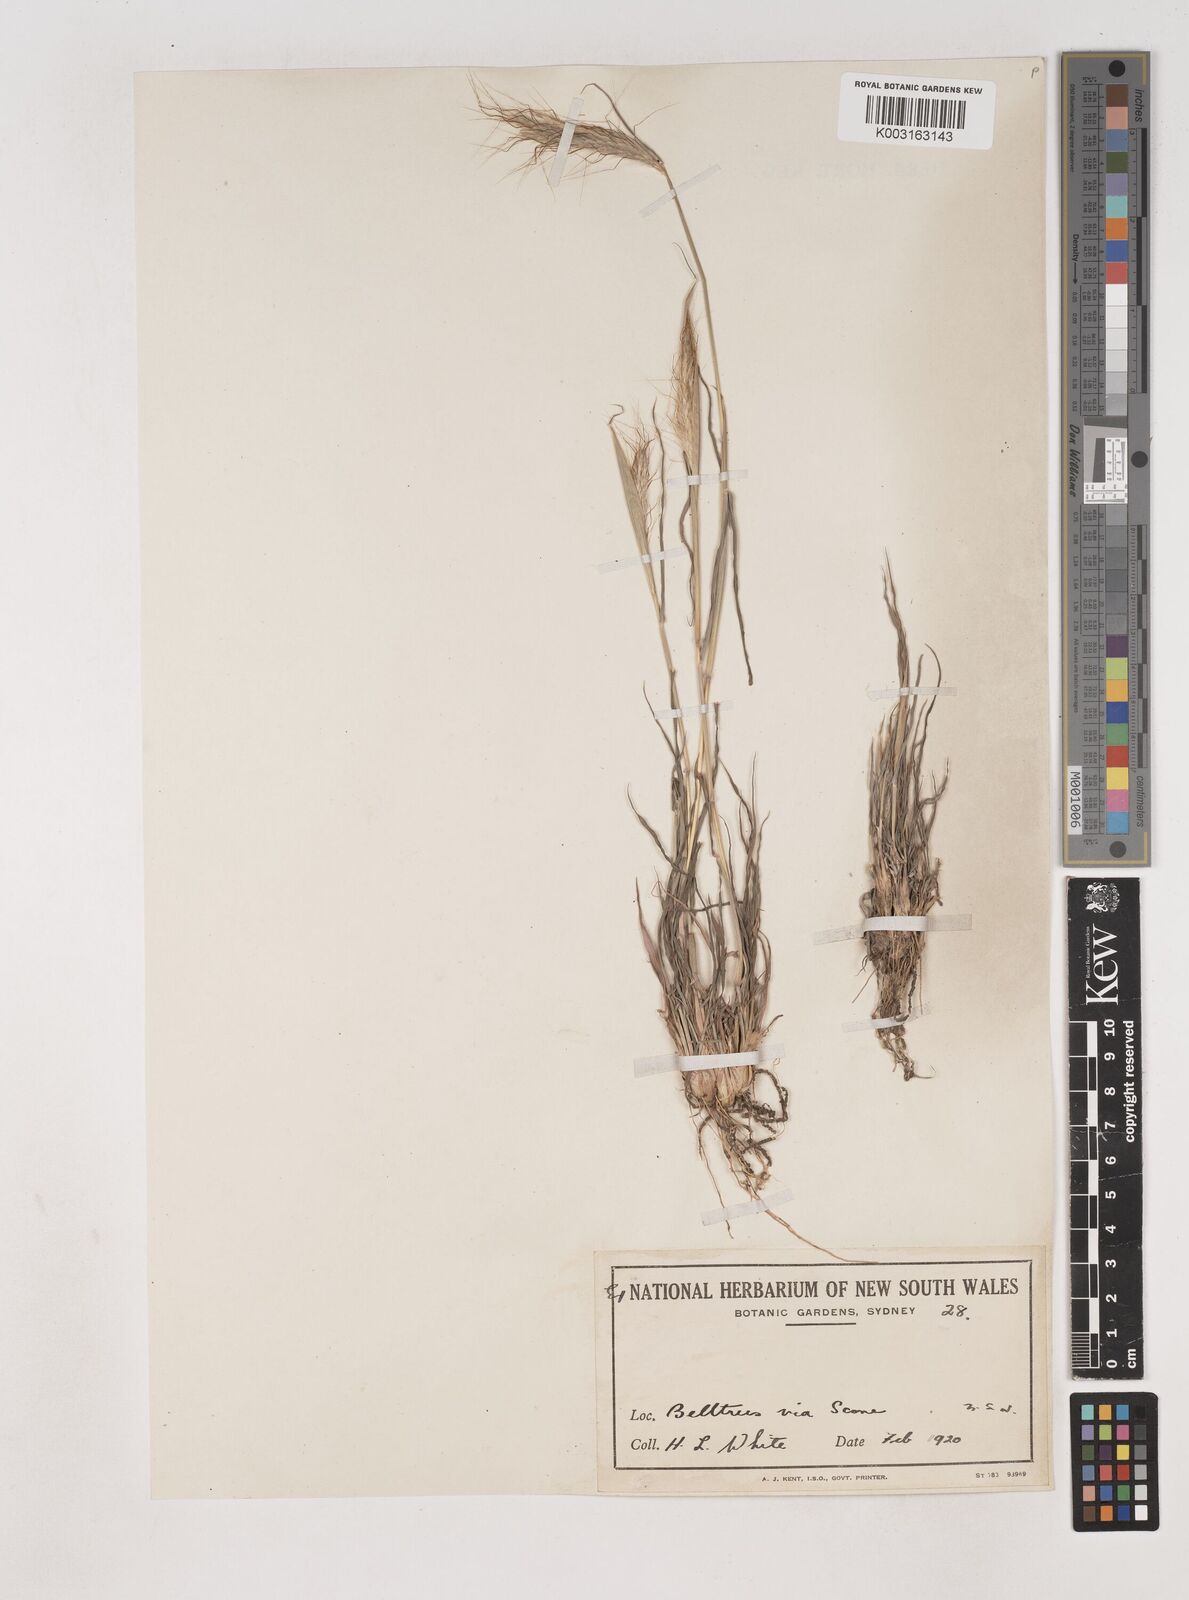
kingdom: Plantae
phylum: Tracheophyta
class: Liliopsida
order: Poales
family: Poaceae
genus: Dichanthium
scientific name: Dichanthium sericeum
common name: Silky bluestem
